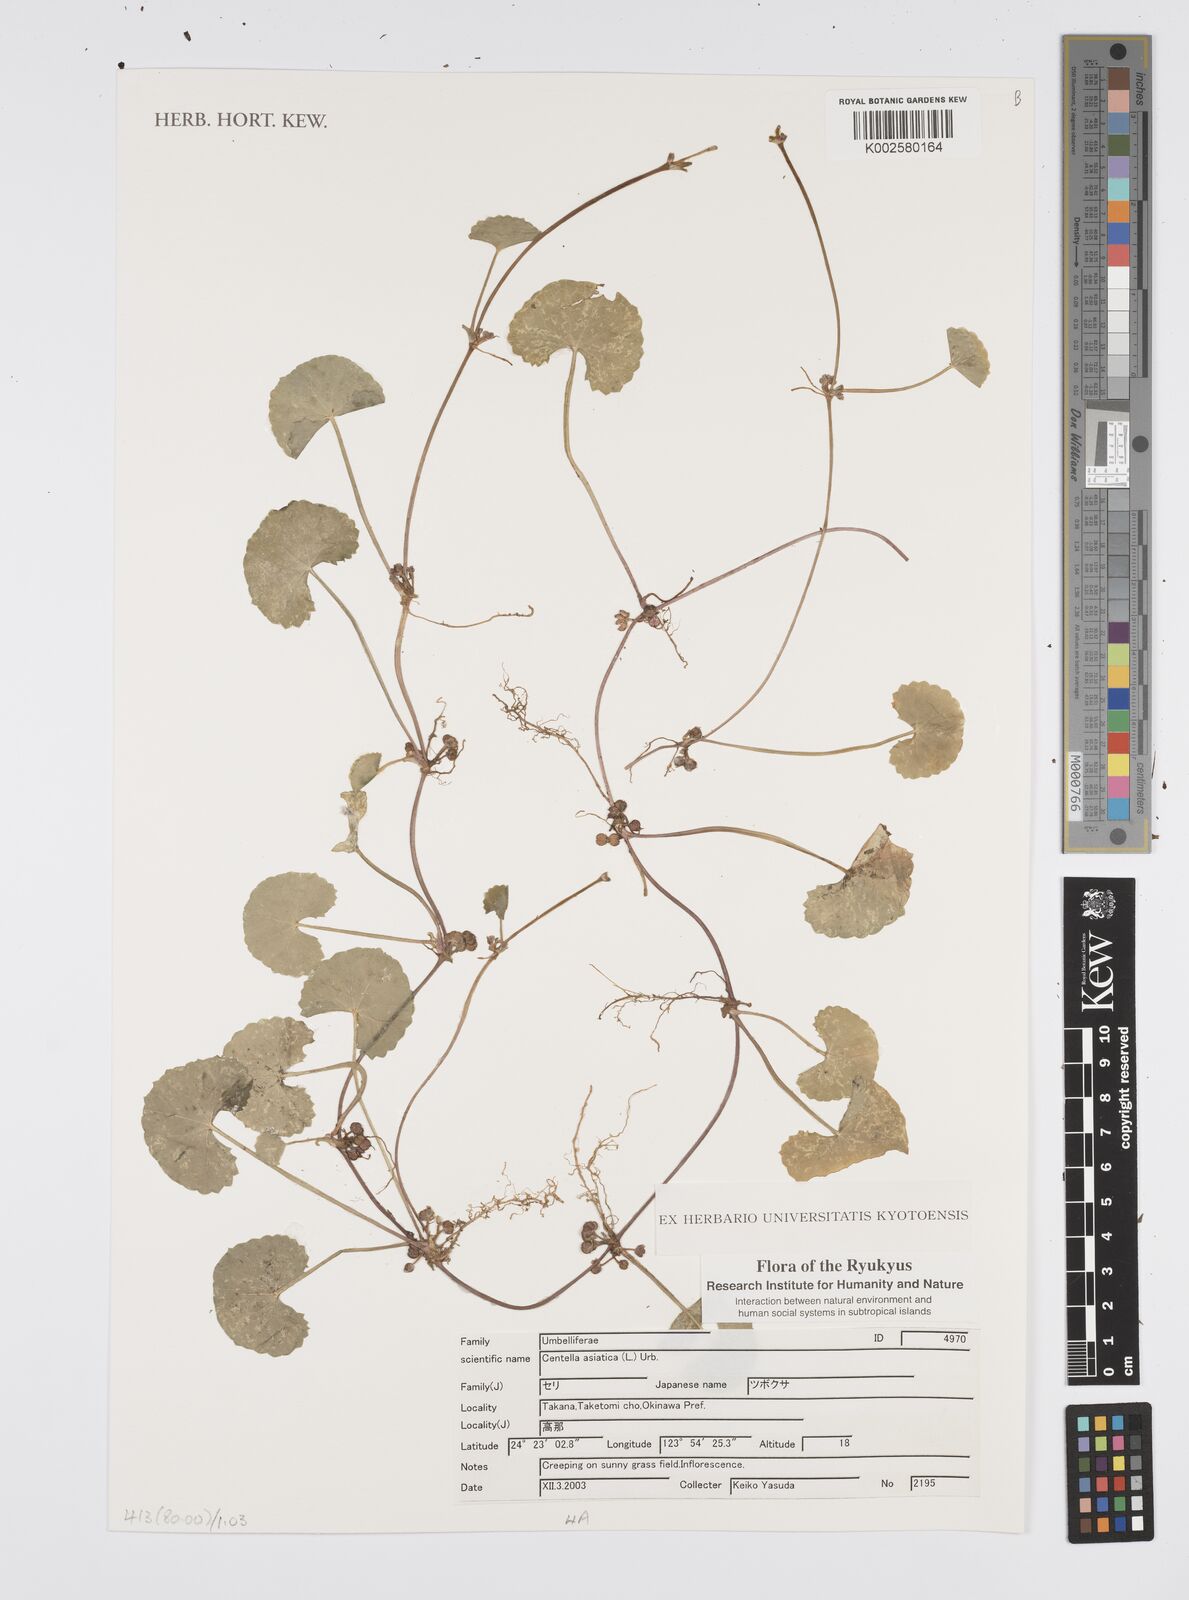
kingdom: Plantae
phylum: Tracheophyta
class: Magnoliopsida
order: Apiales
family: Apiaceae
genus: Centella
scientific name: Centella asiatica
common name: Spadeleaf
